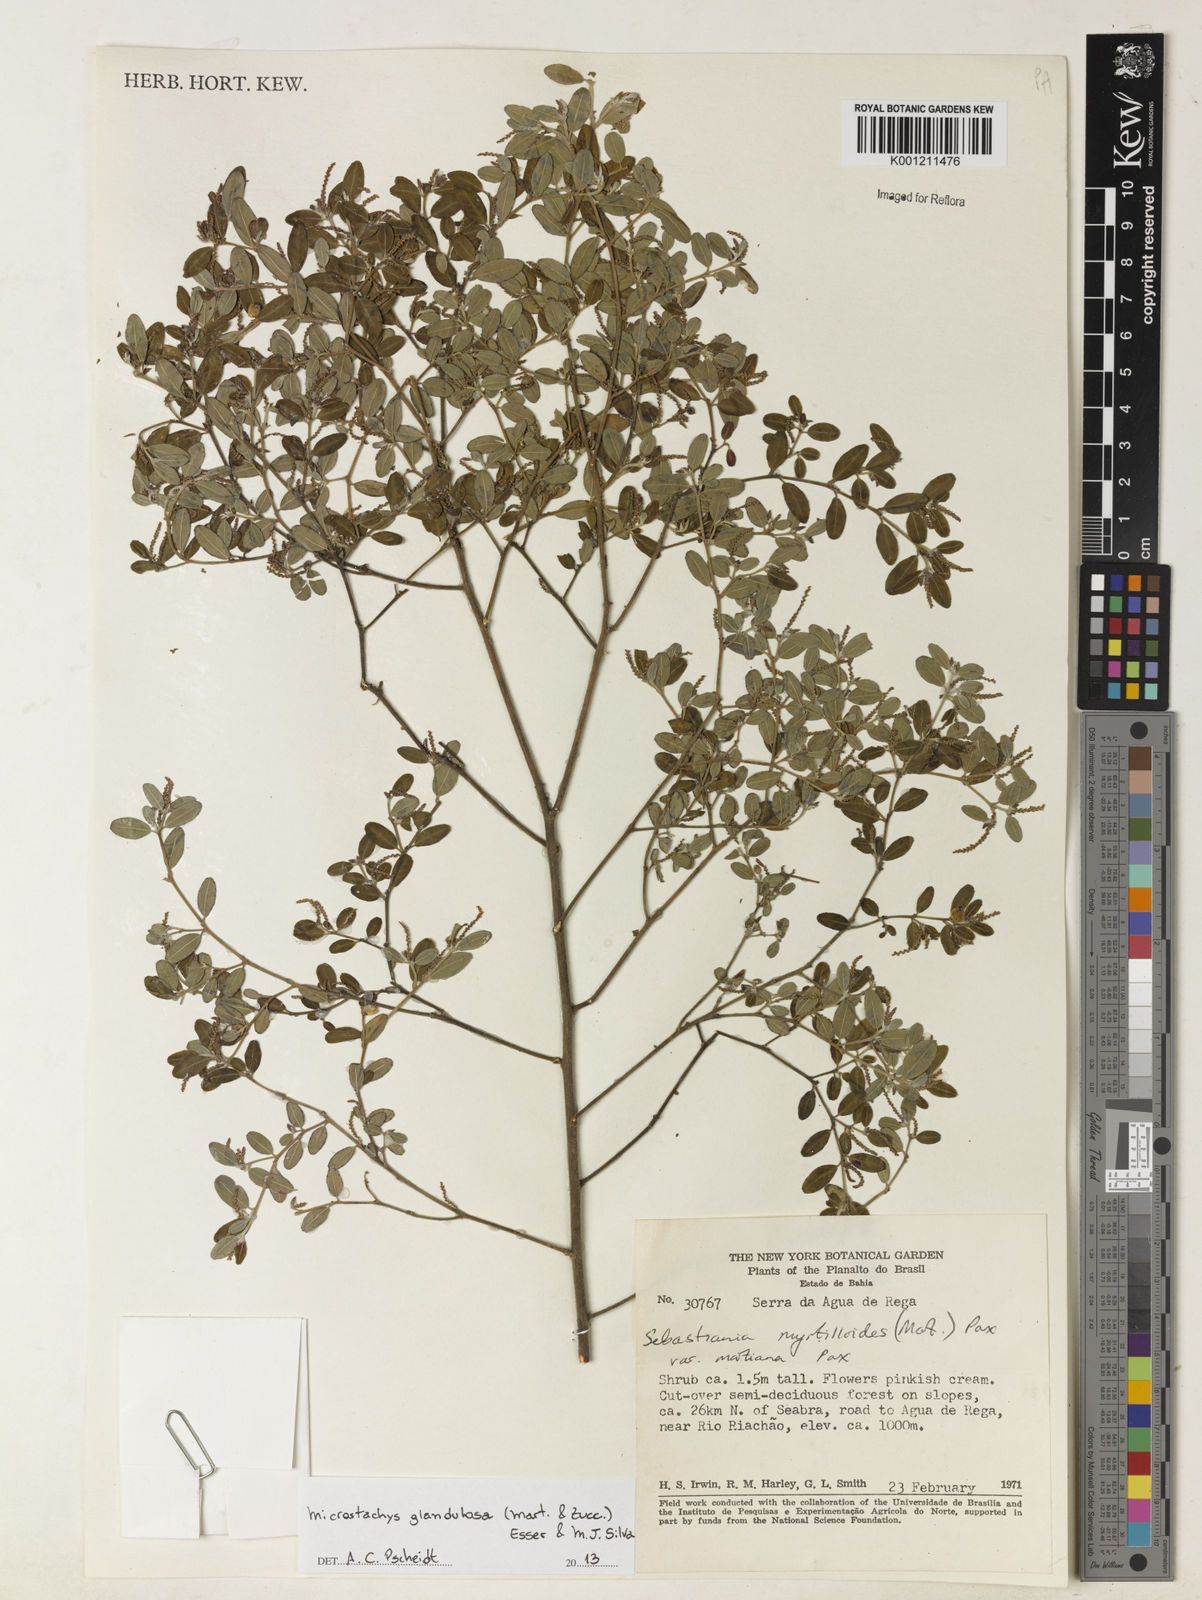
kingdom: Plantae
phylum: Tracheophyta
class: Magnoliopsida
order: Malpighiales
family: Euphorbiaceae
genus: Microstachys
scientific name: Microstachys glandulosa
